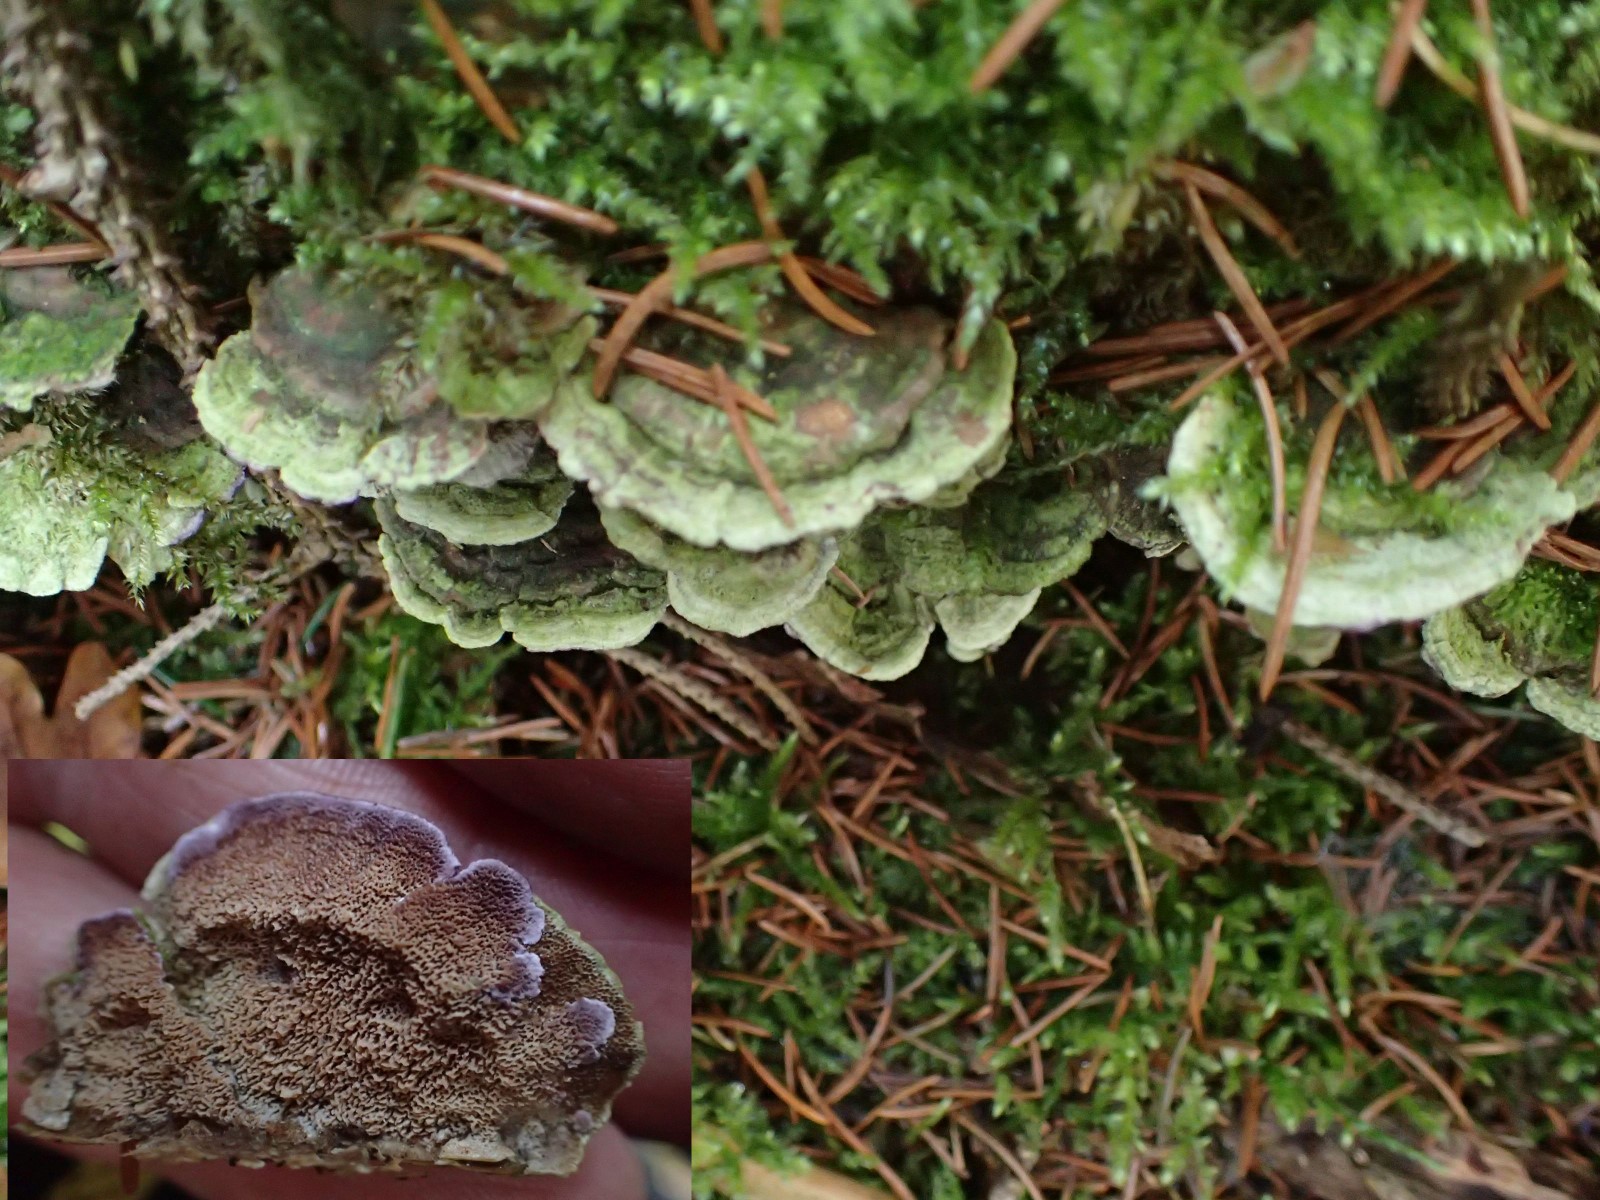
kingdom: Fungi
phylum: Basidiomycota
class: Agaricomycetes
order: Hymenochaetales
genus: Trichaptum
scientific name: Trichaptum abietinum
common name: almindelig violporesvamp
